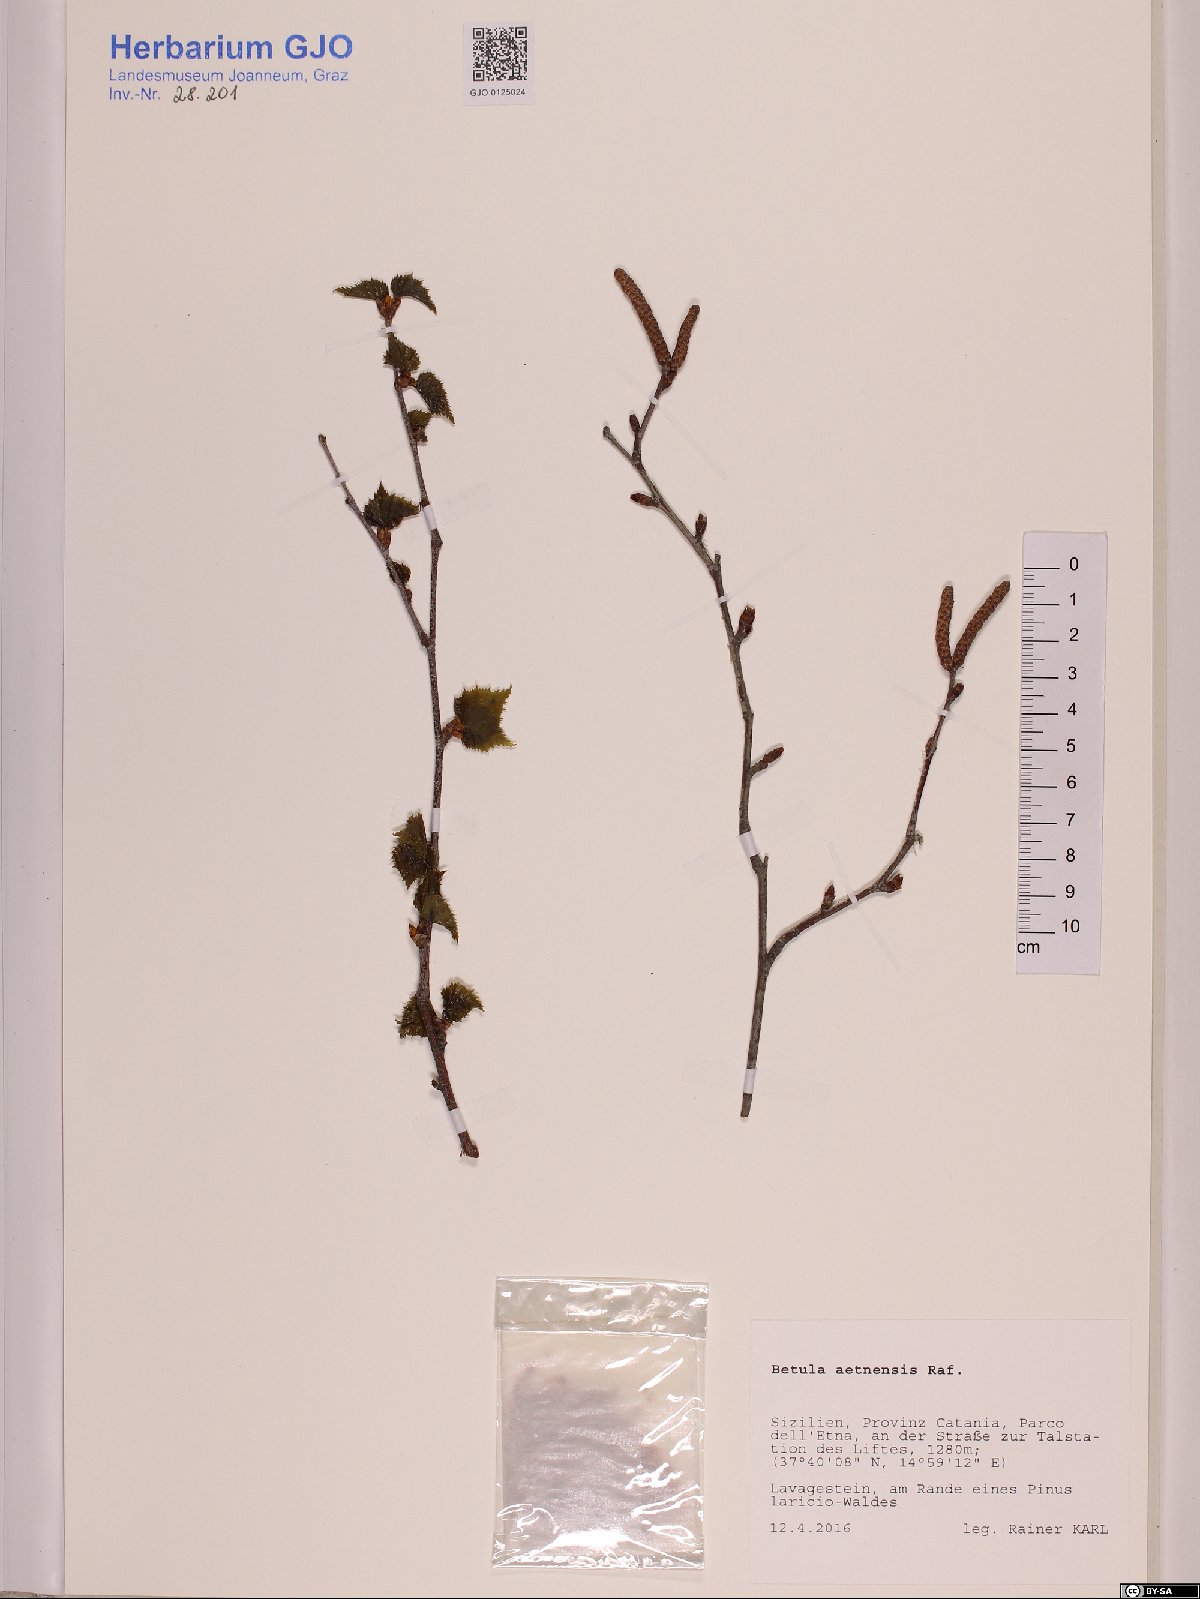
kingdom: Plantae
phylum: Tracheophyta
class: Magnoliopsida
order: Fagales
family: Betulaceae
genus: Betula
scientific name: Betula pendula
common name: Silver birch
